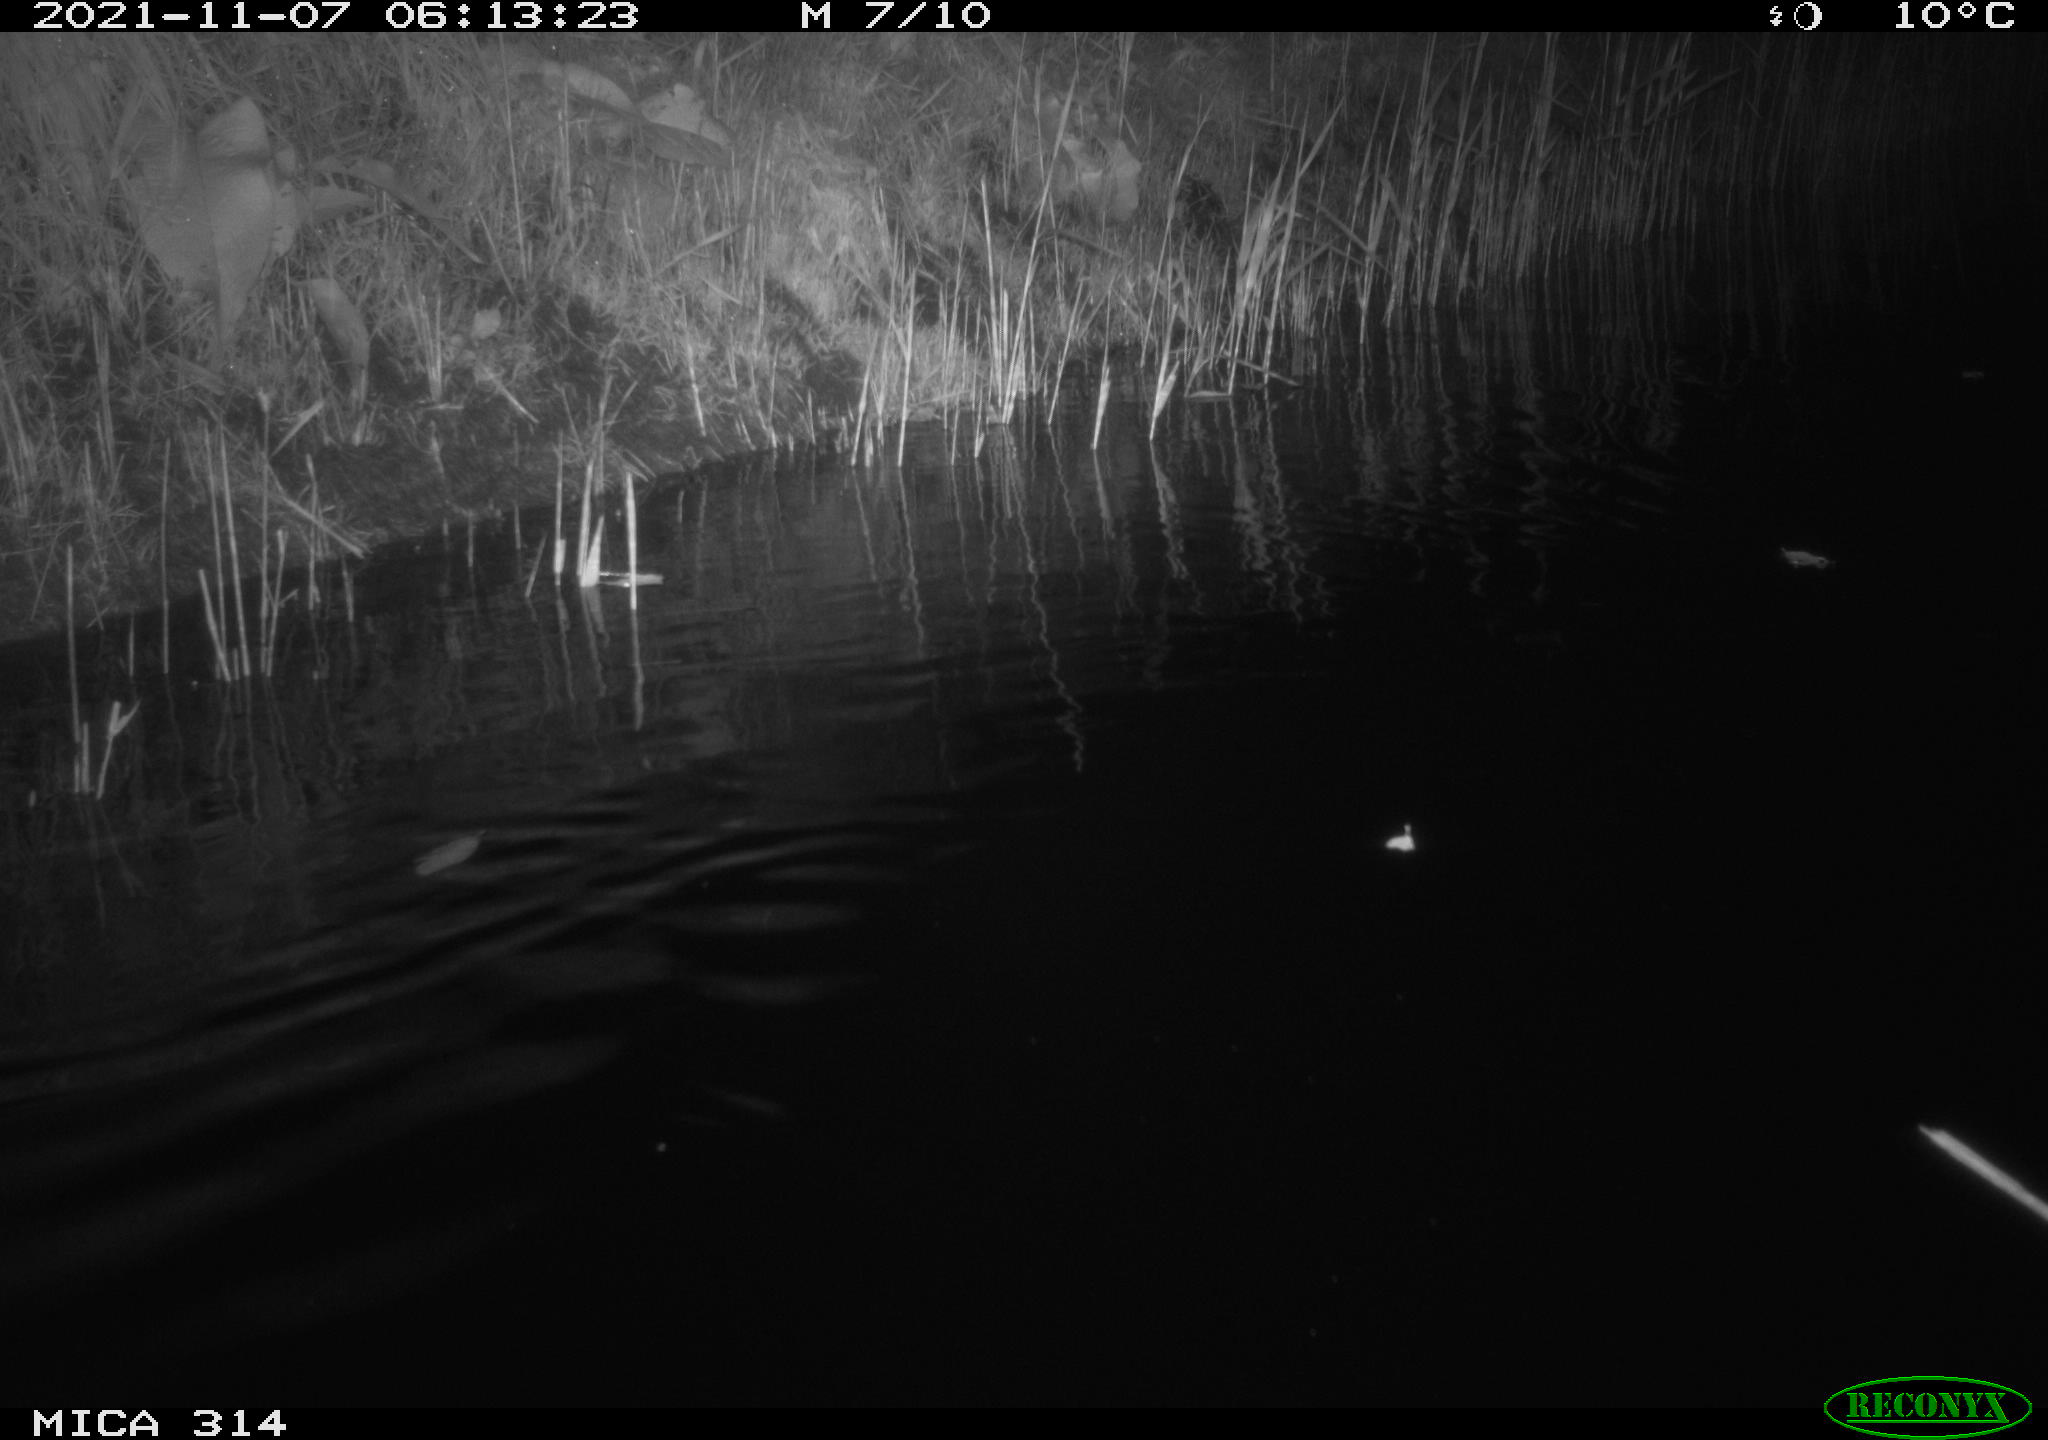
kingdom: Animalia
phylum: Chordata
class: Mammalia
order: Rodentia
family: Muridae
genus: Rattus
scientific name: Rattus norvegicus
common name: Brown rat
